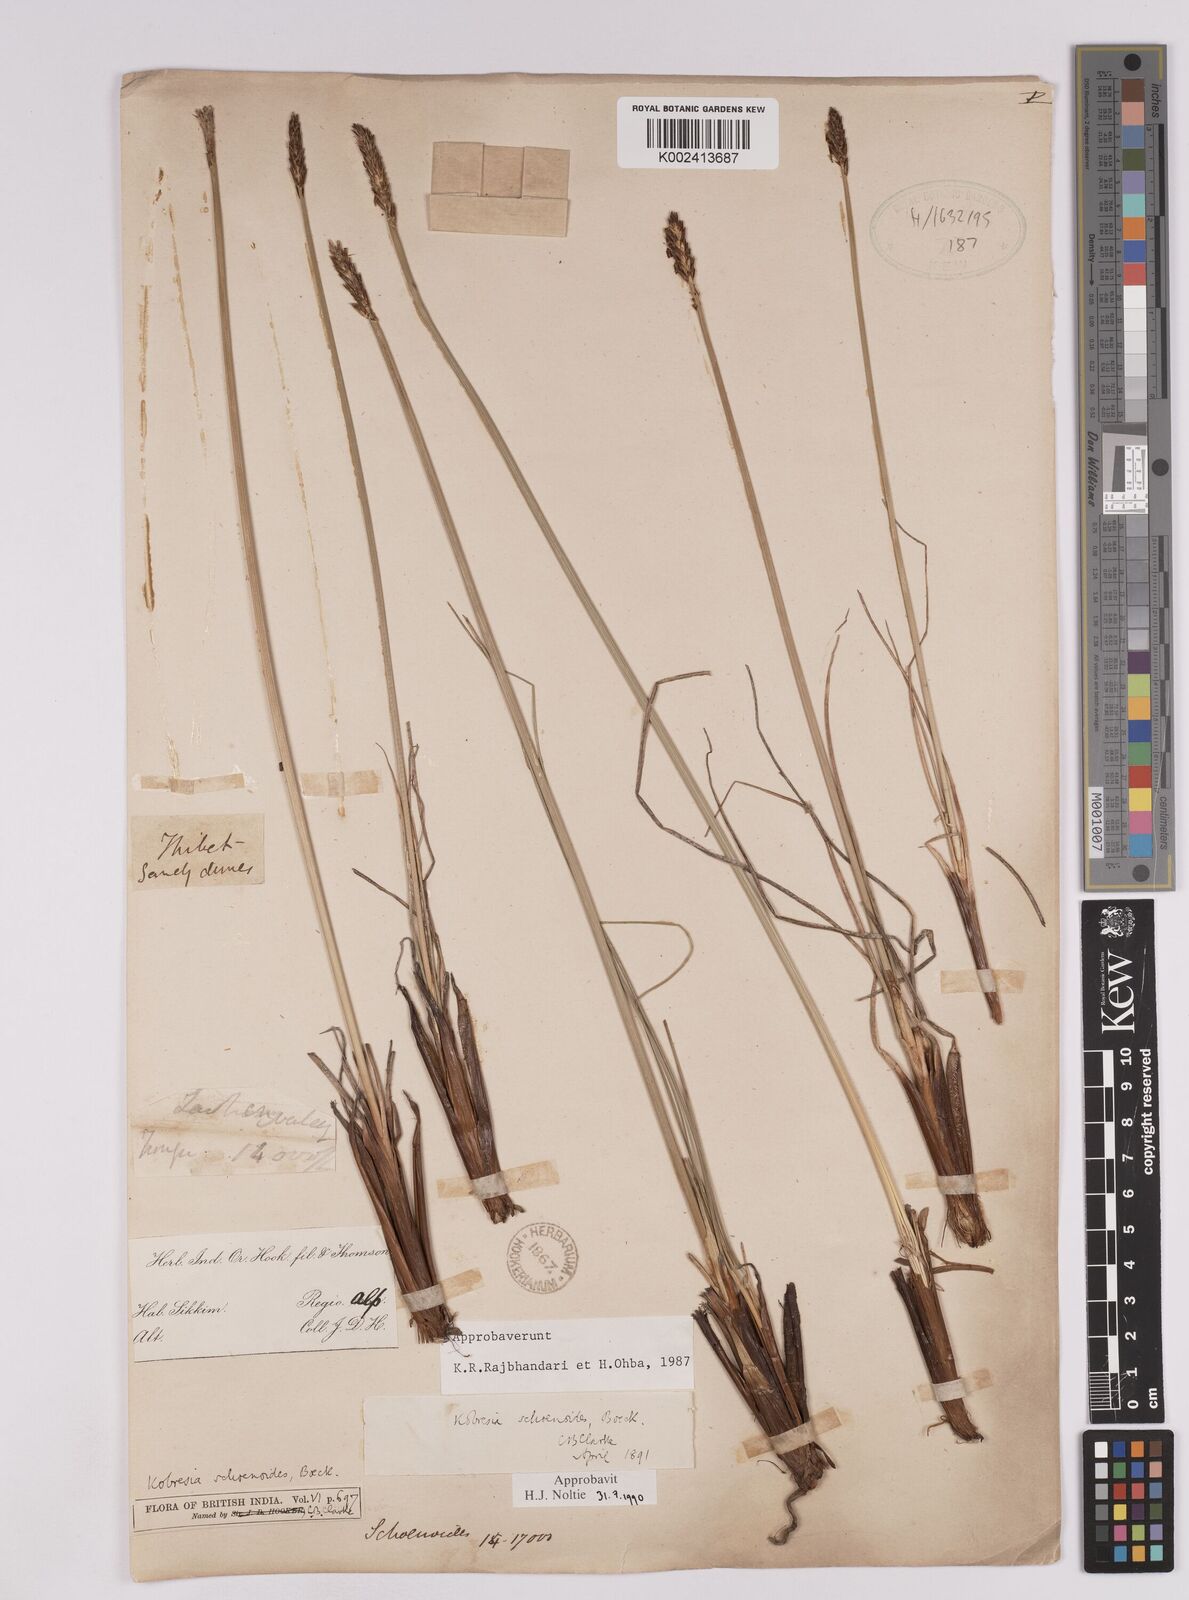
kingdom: Plantae
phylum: Tracheophyta
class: Liliopsida
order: Poales
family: Cyperaceae
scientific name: Cyperaceae
